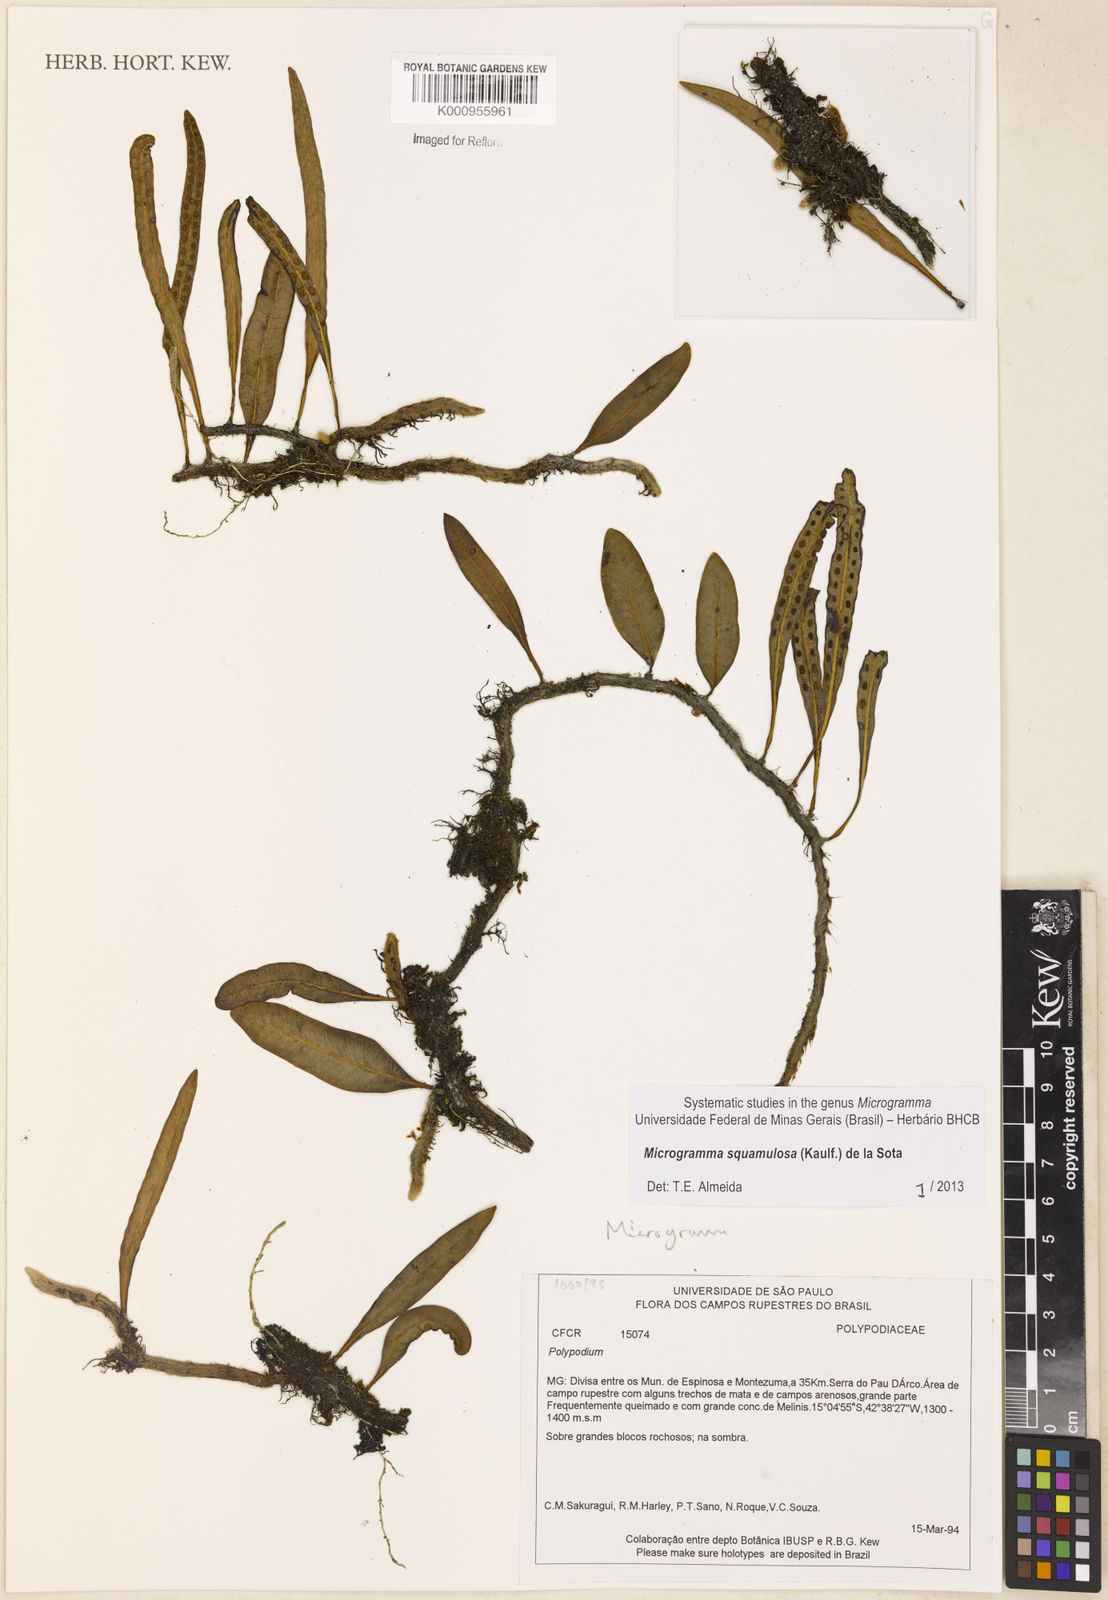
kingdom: Plantae
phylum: Tracheophyta
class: Polypodiopsida
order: Polypodiales
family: Polypodiaceae
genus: Microgramma
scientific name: Microgramma squamulosa
